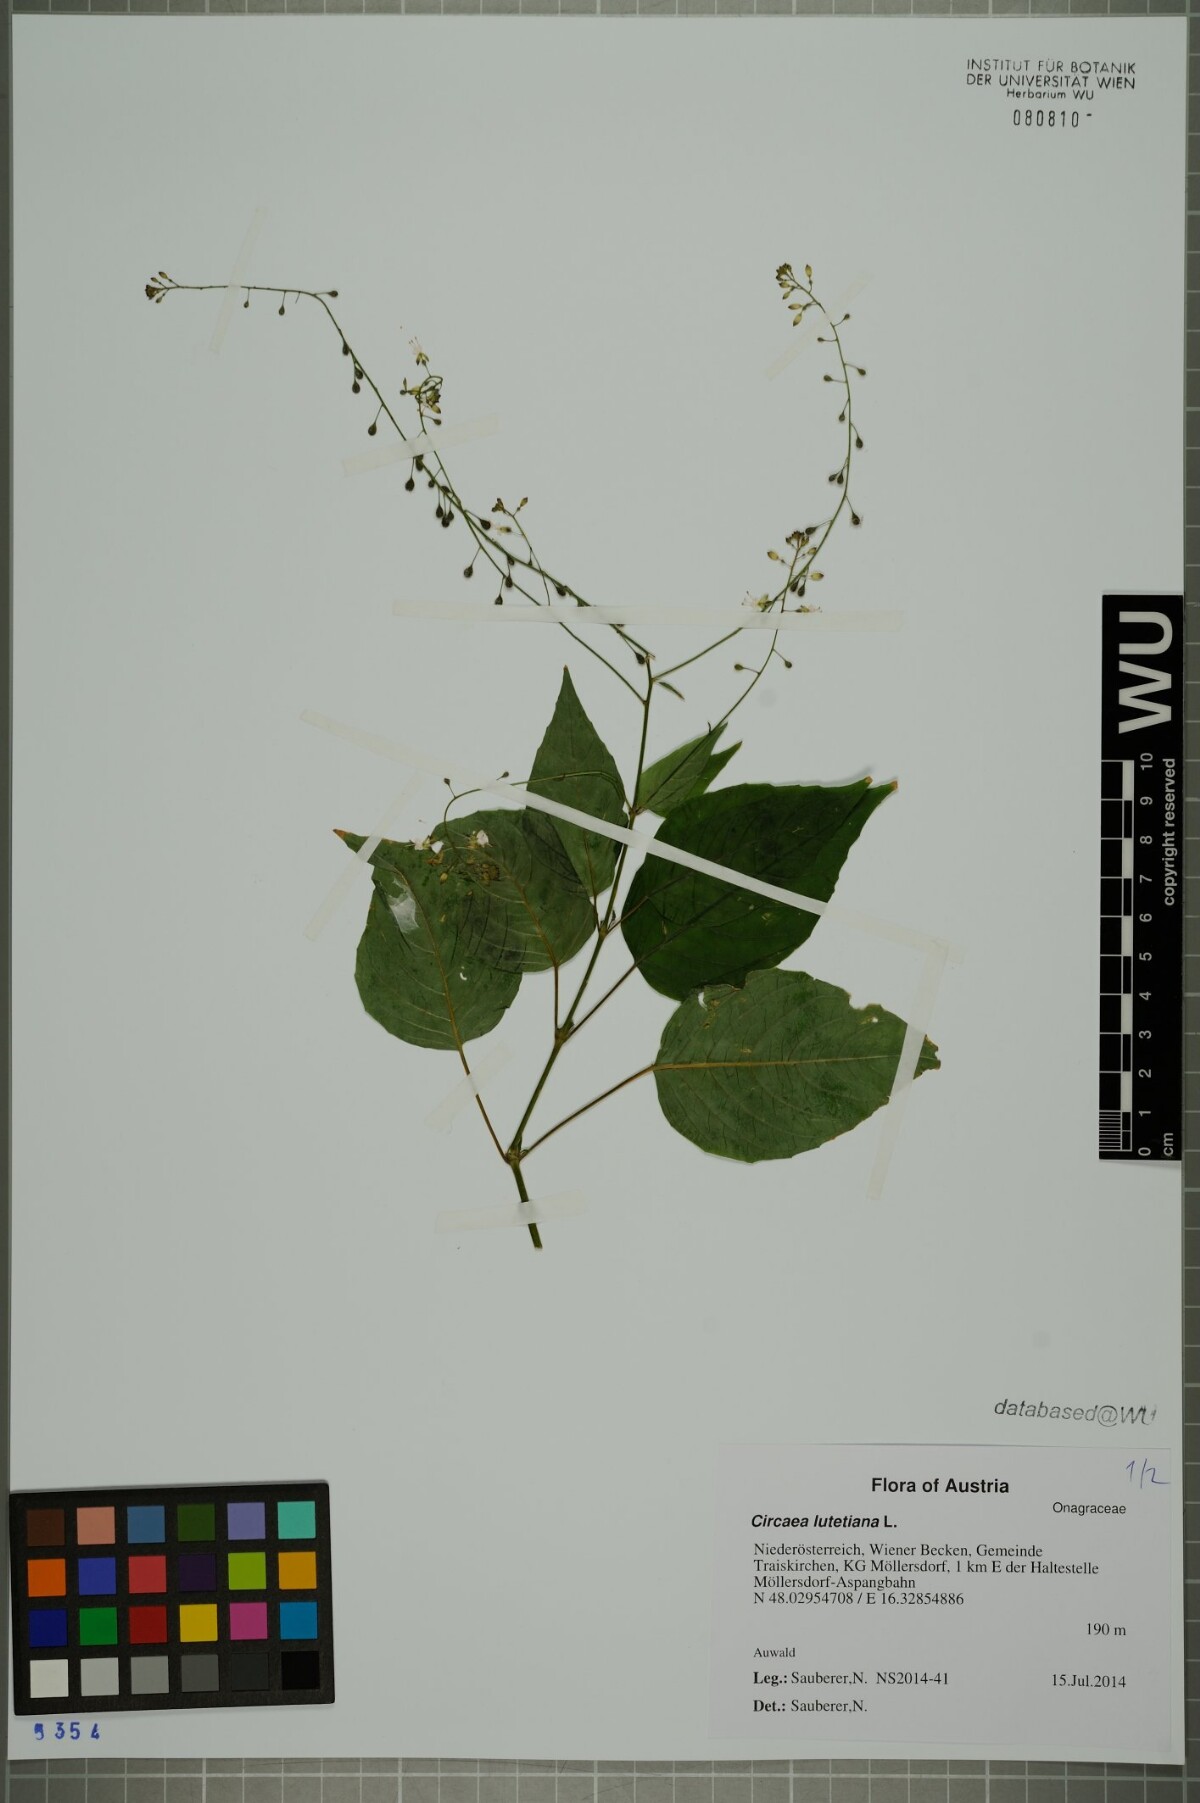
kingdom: Plantae
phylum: Tracheophyta
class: Magnoliopsida
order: Myrtales
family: Onagraceae
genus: Circaea
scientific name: Circaea lutetiana
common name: Enchanter's-nightshade
